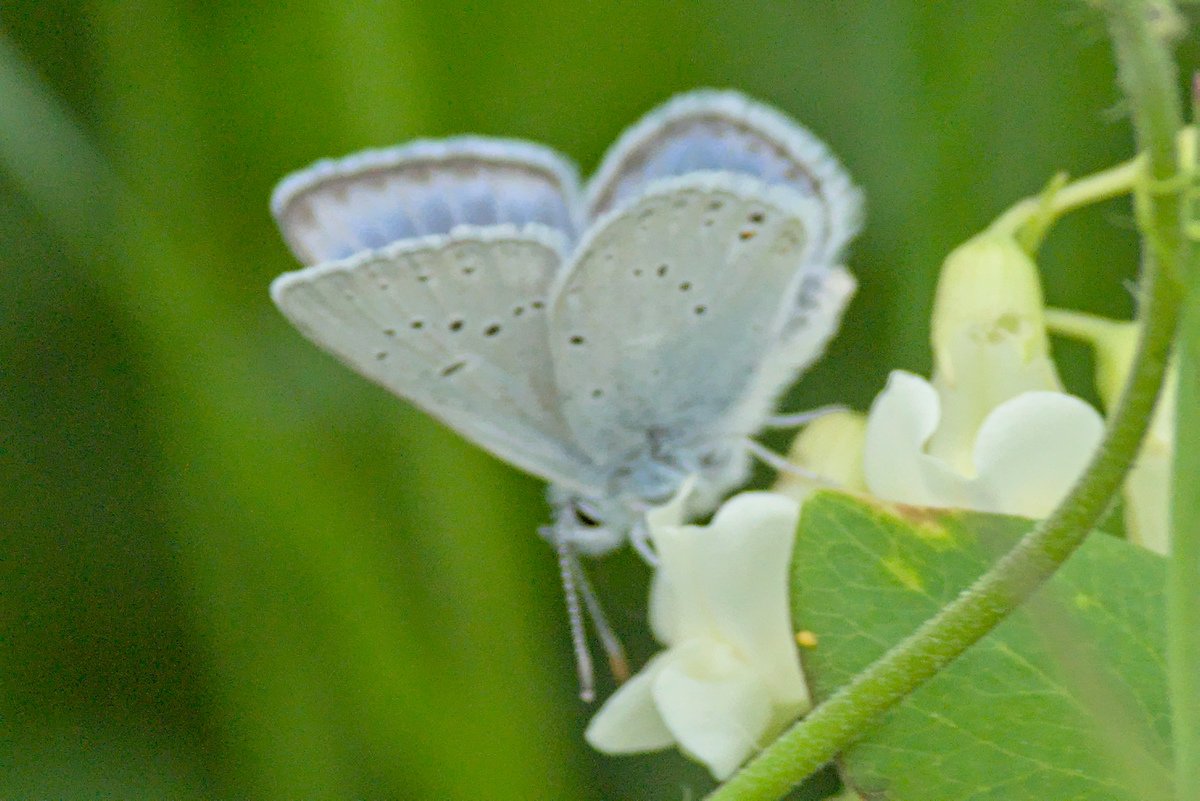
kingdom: Animalia
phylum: Arthropoda
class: Insecta
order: Lepidoptera
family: Lycaenidae
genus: Plebejus
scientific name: Plebejus saepiolus
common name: Greenish Blue
